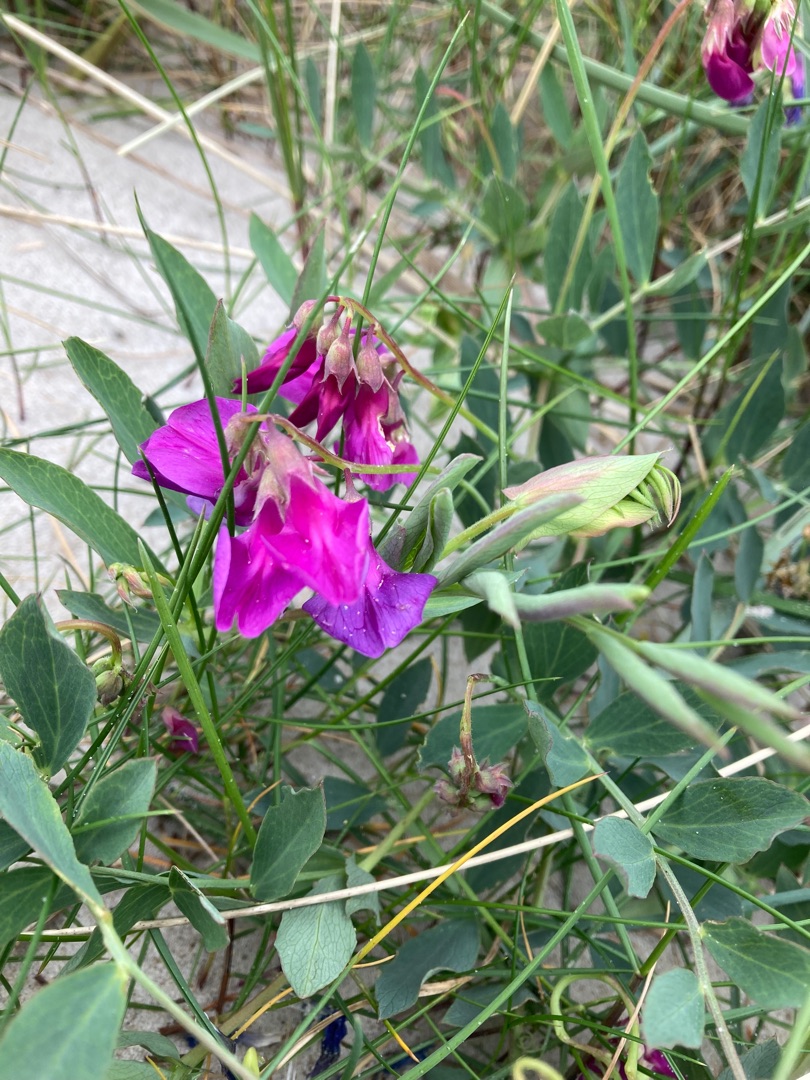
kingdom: Plantae
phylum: Tracheophyta
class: Magnoliopsida
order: Fabales
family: Fabaceae
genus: Lathyrus
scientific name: Lathyrus japonicus
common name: Strand-fladbælg
